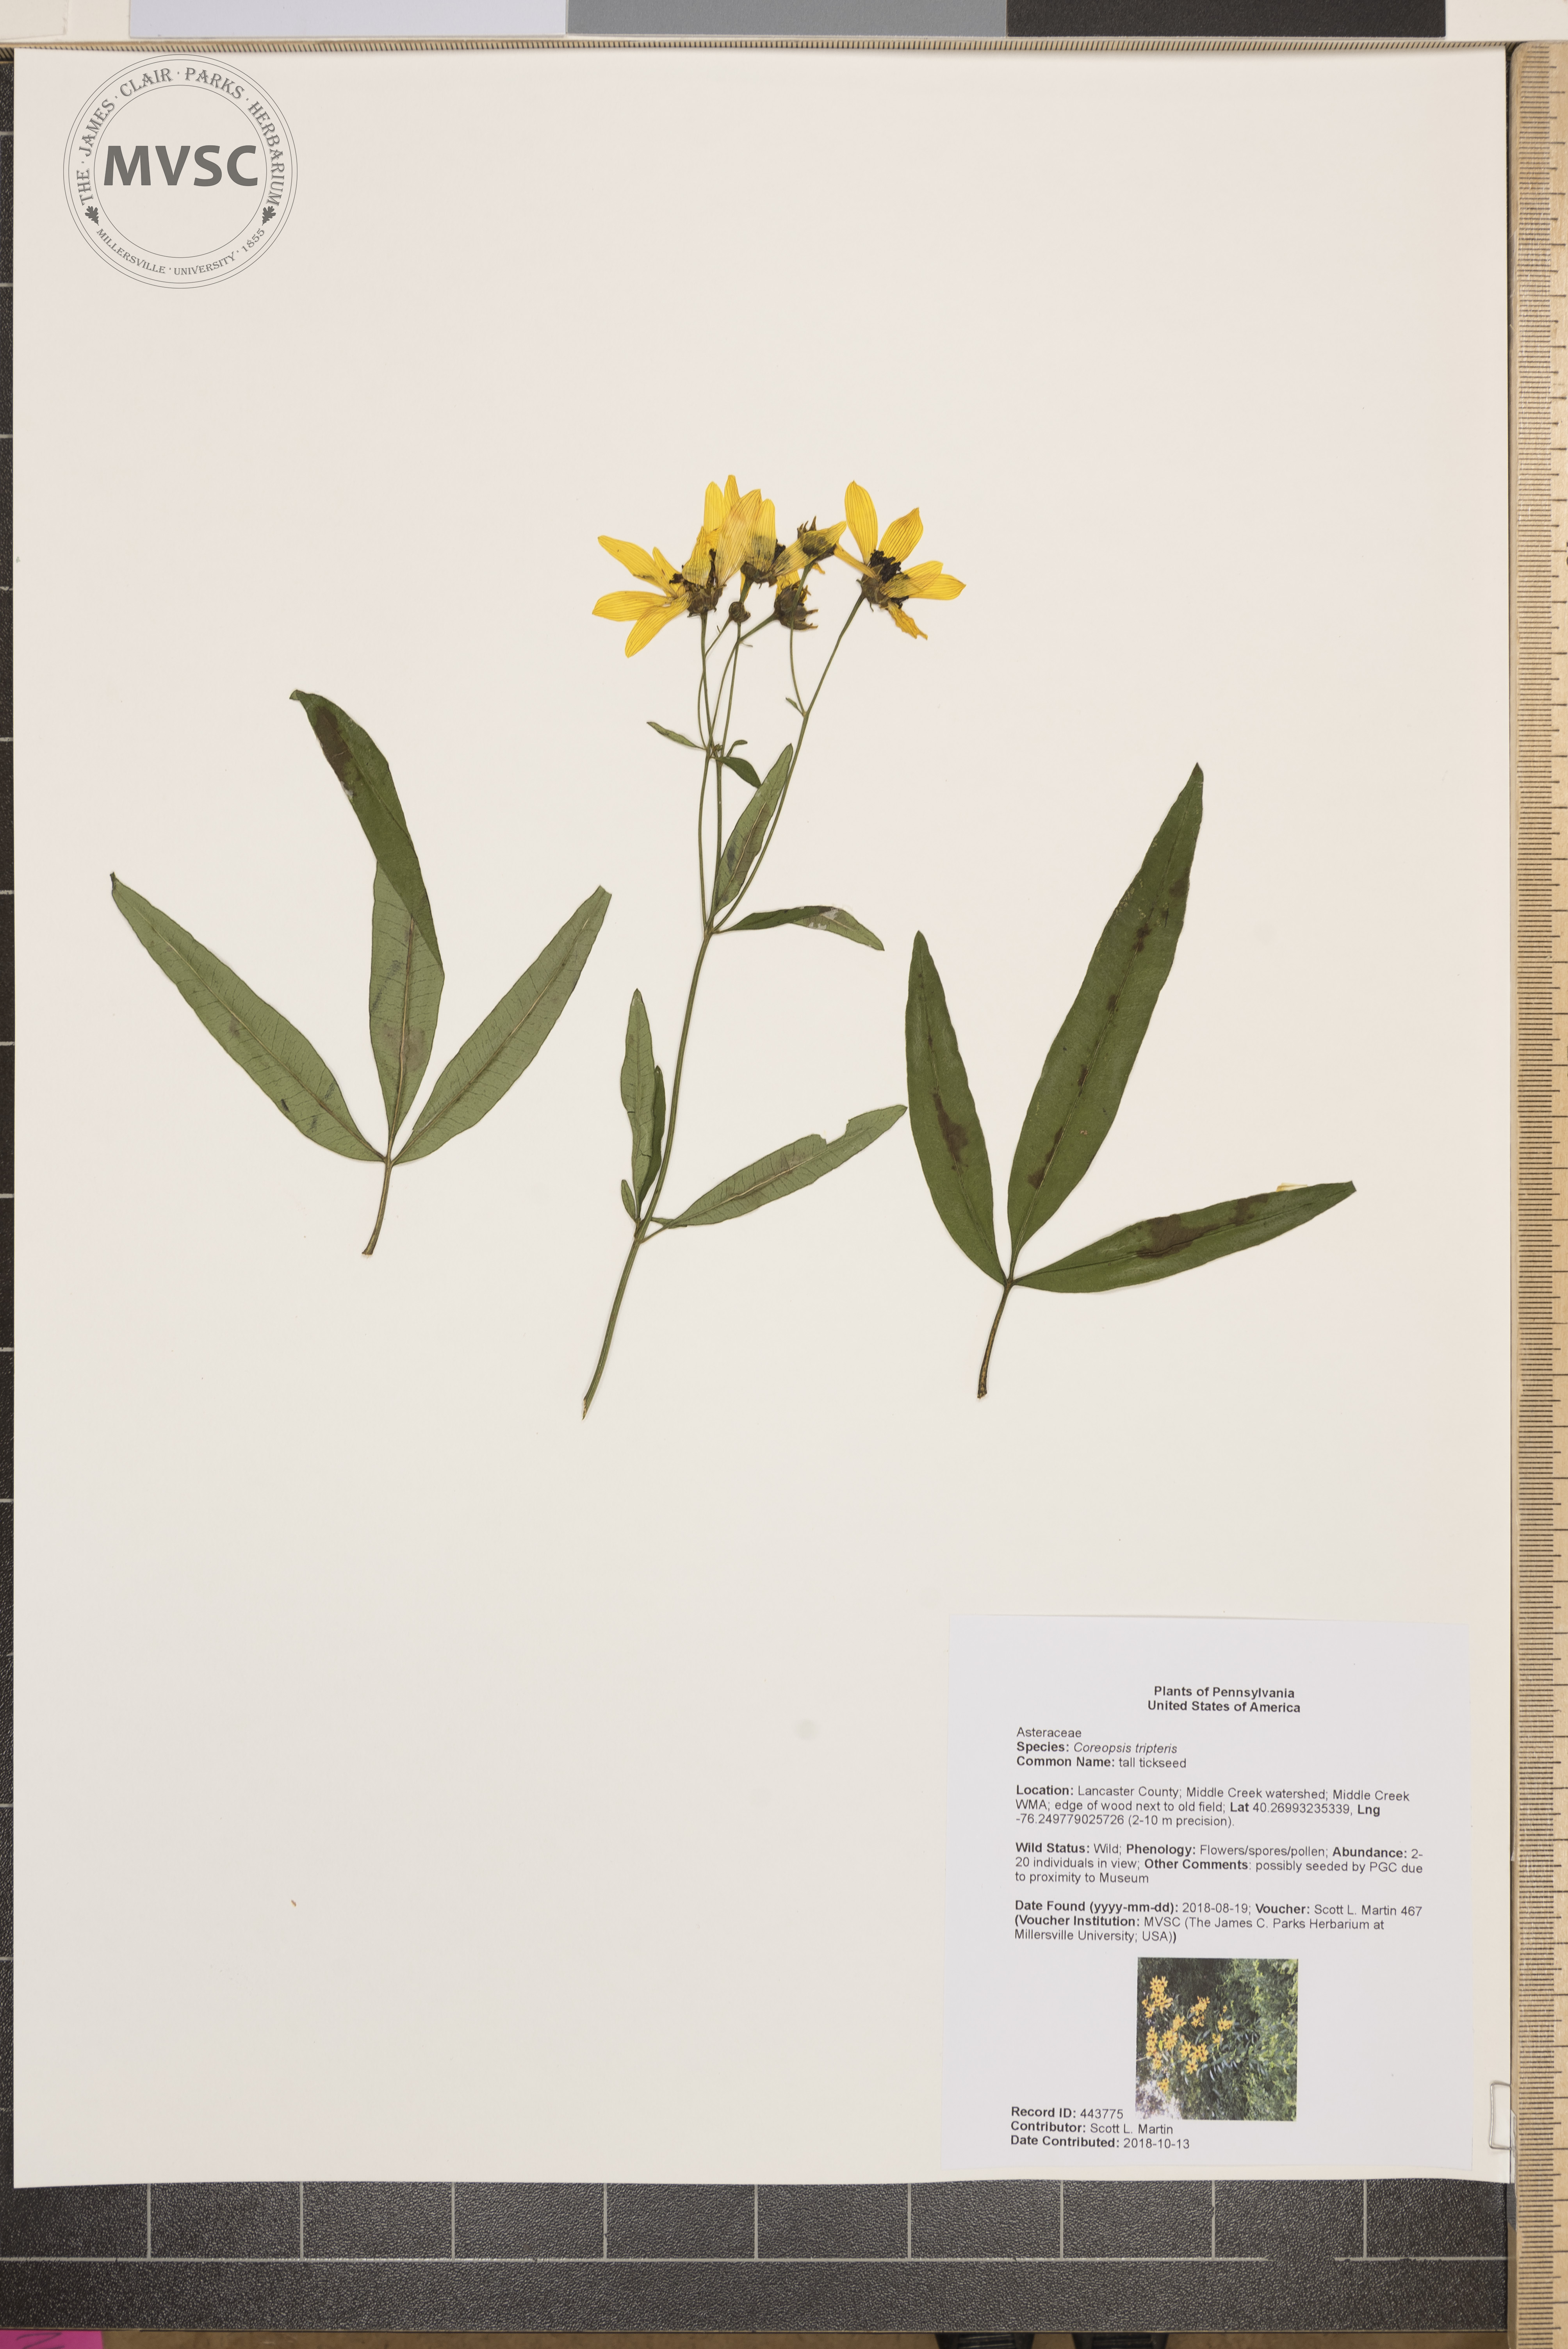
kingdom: Plantae
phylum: Tracheophyta
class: Magnoliopsida
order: Asterales
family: Asteraceae
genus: Coreopsis
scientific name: Coreopsis tripteris
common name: tall tickseed
